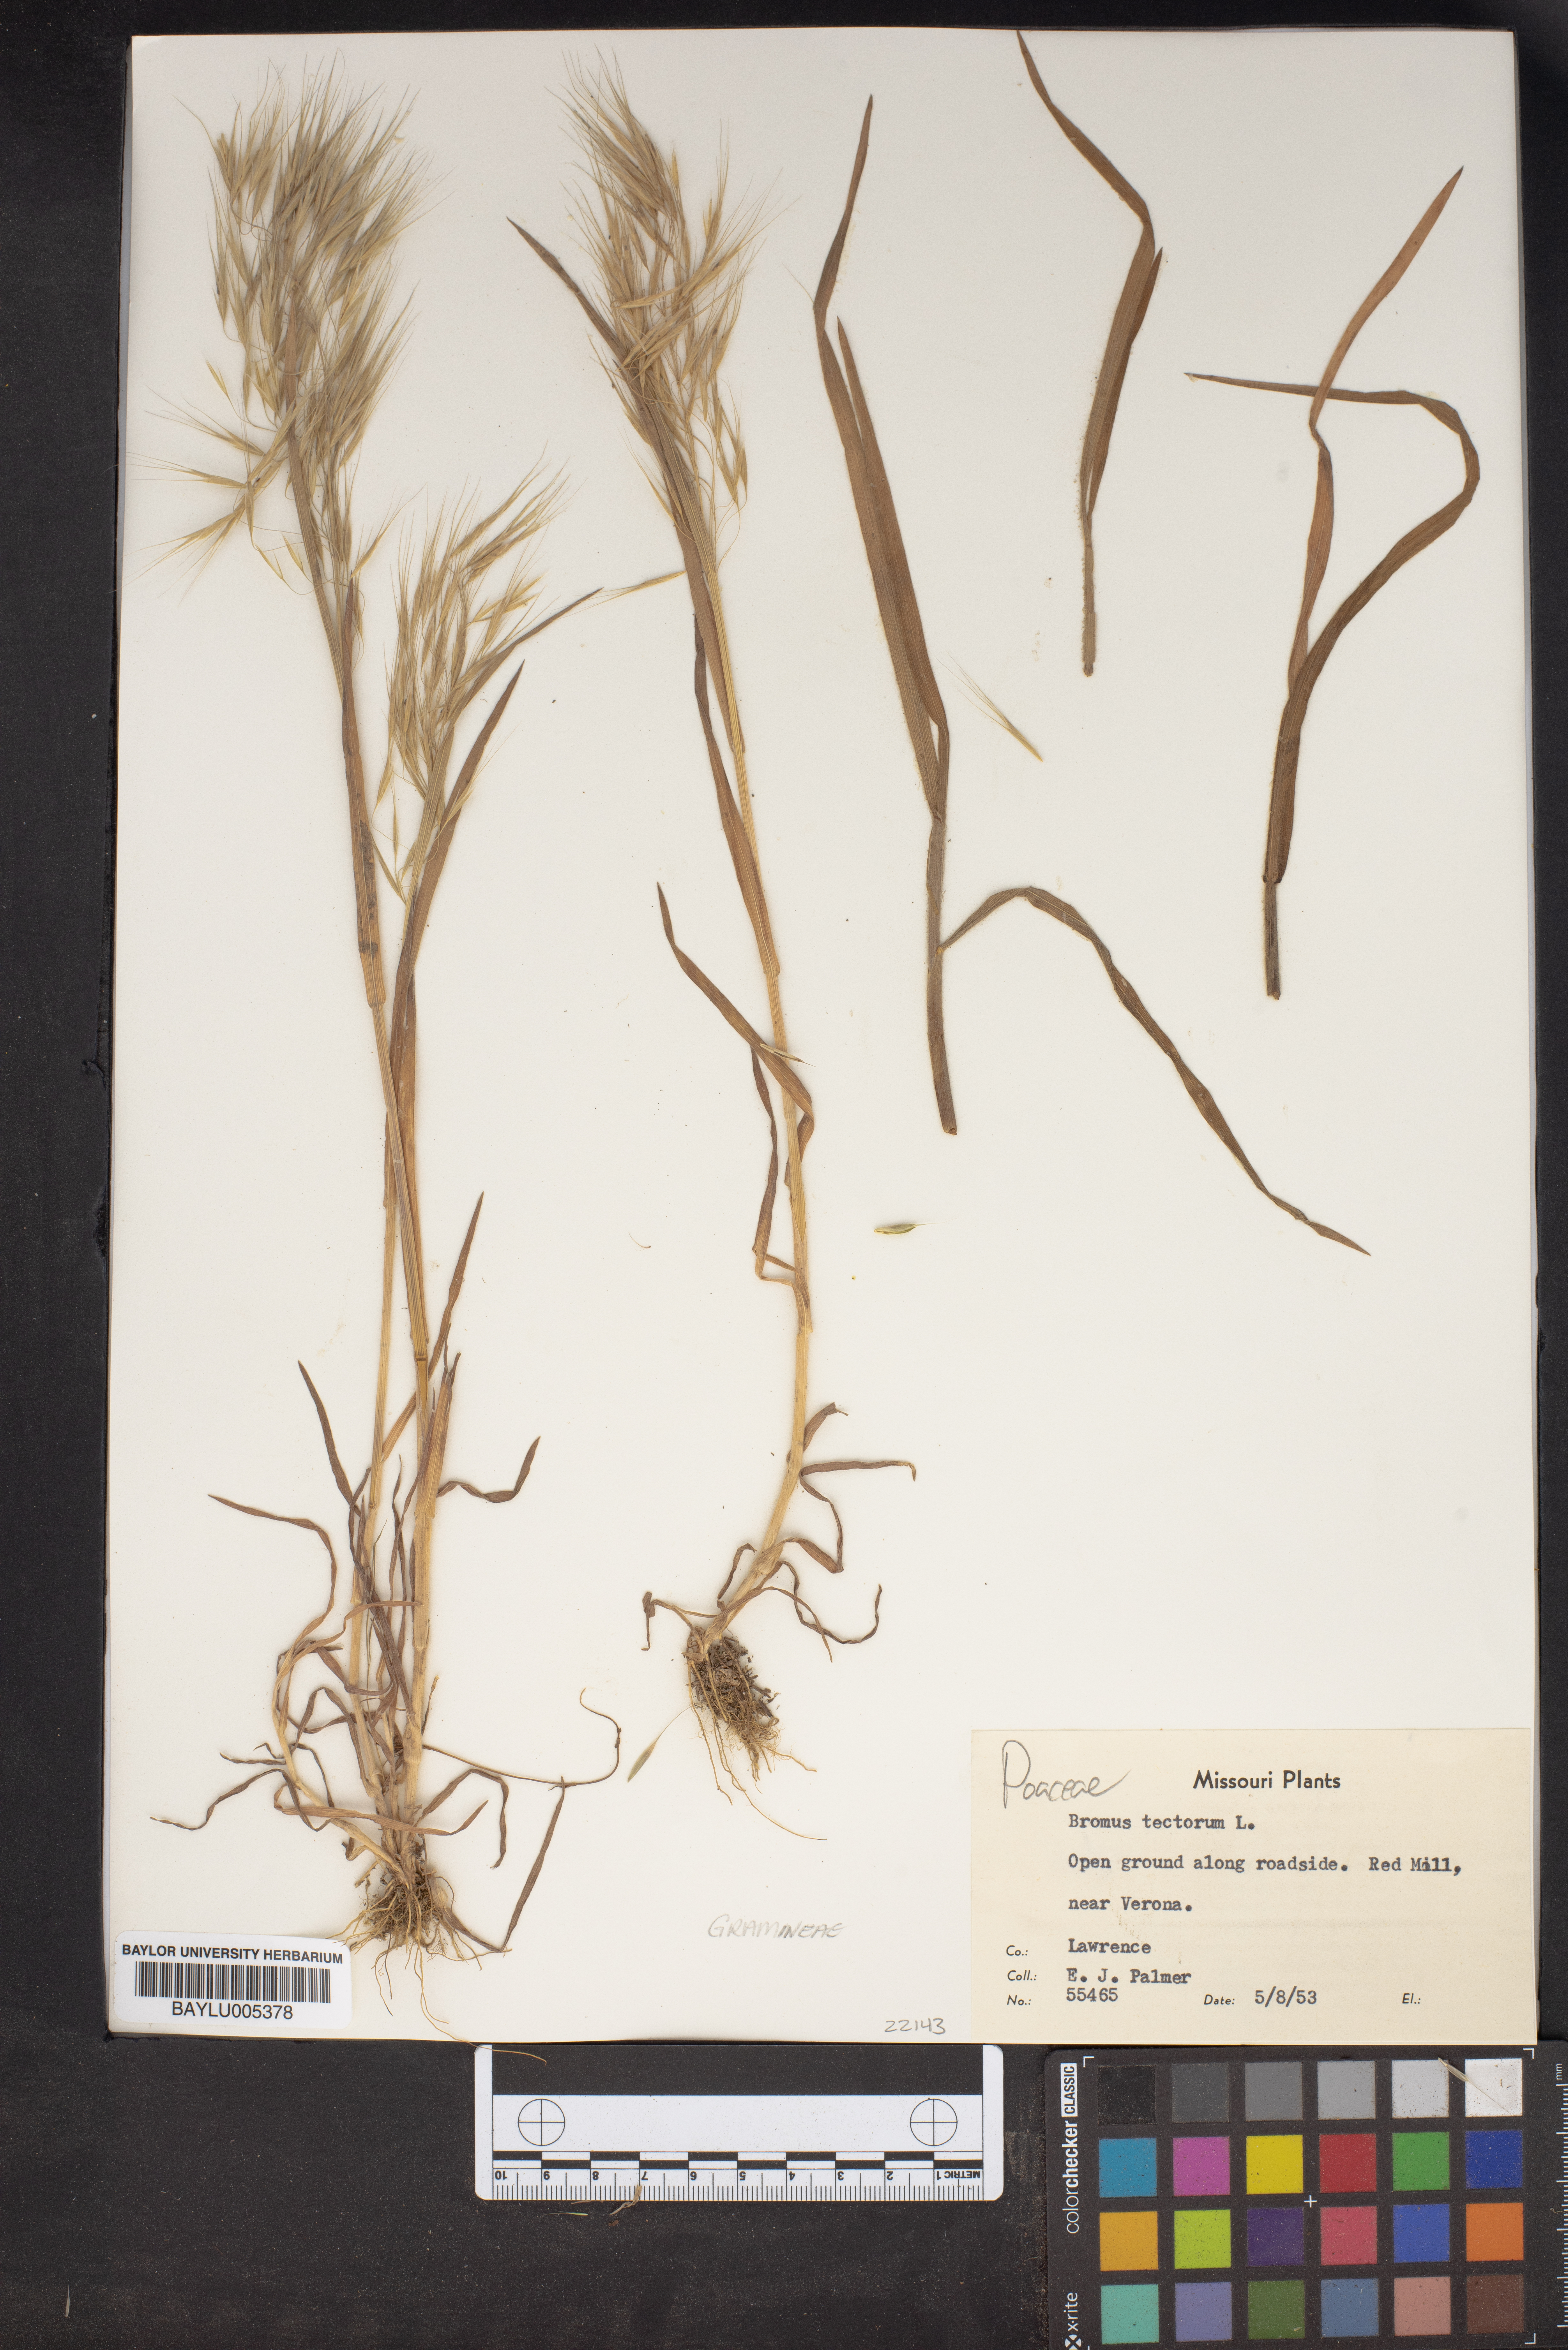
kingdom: Plantae
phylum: Tracheophyta
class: Liliopsida
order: Poales
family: Poaceae
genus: Bromus
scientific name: Bromus tectorum
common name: Cheatgrass
